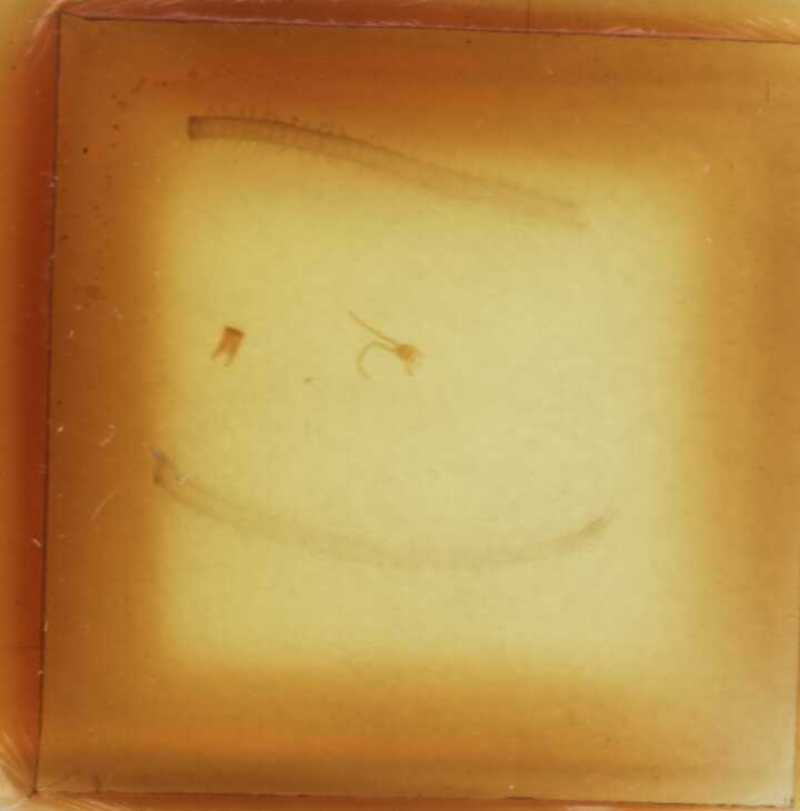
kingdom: Animalia
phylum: Arthropoda
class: Chilopoda
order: Geophilomorpha
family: Geophilidae
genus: Geophilus
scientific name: Geophilus bobolianus
